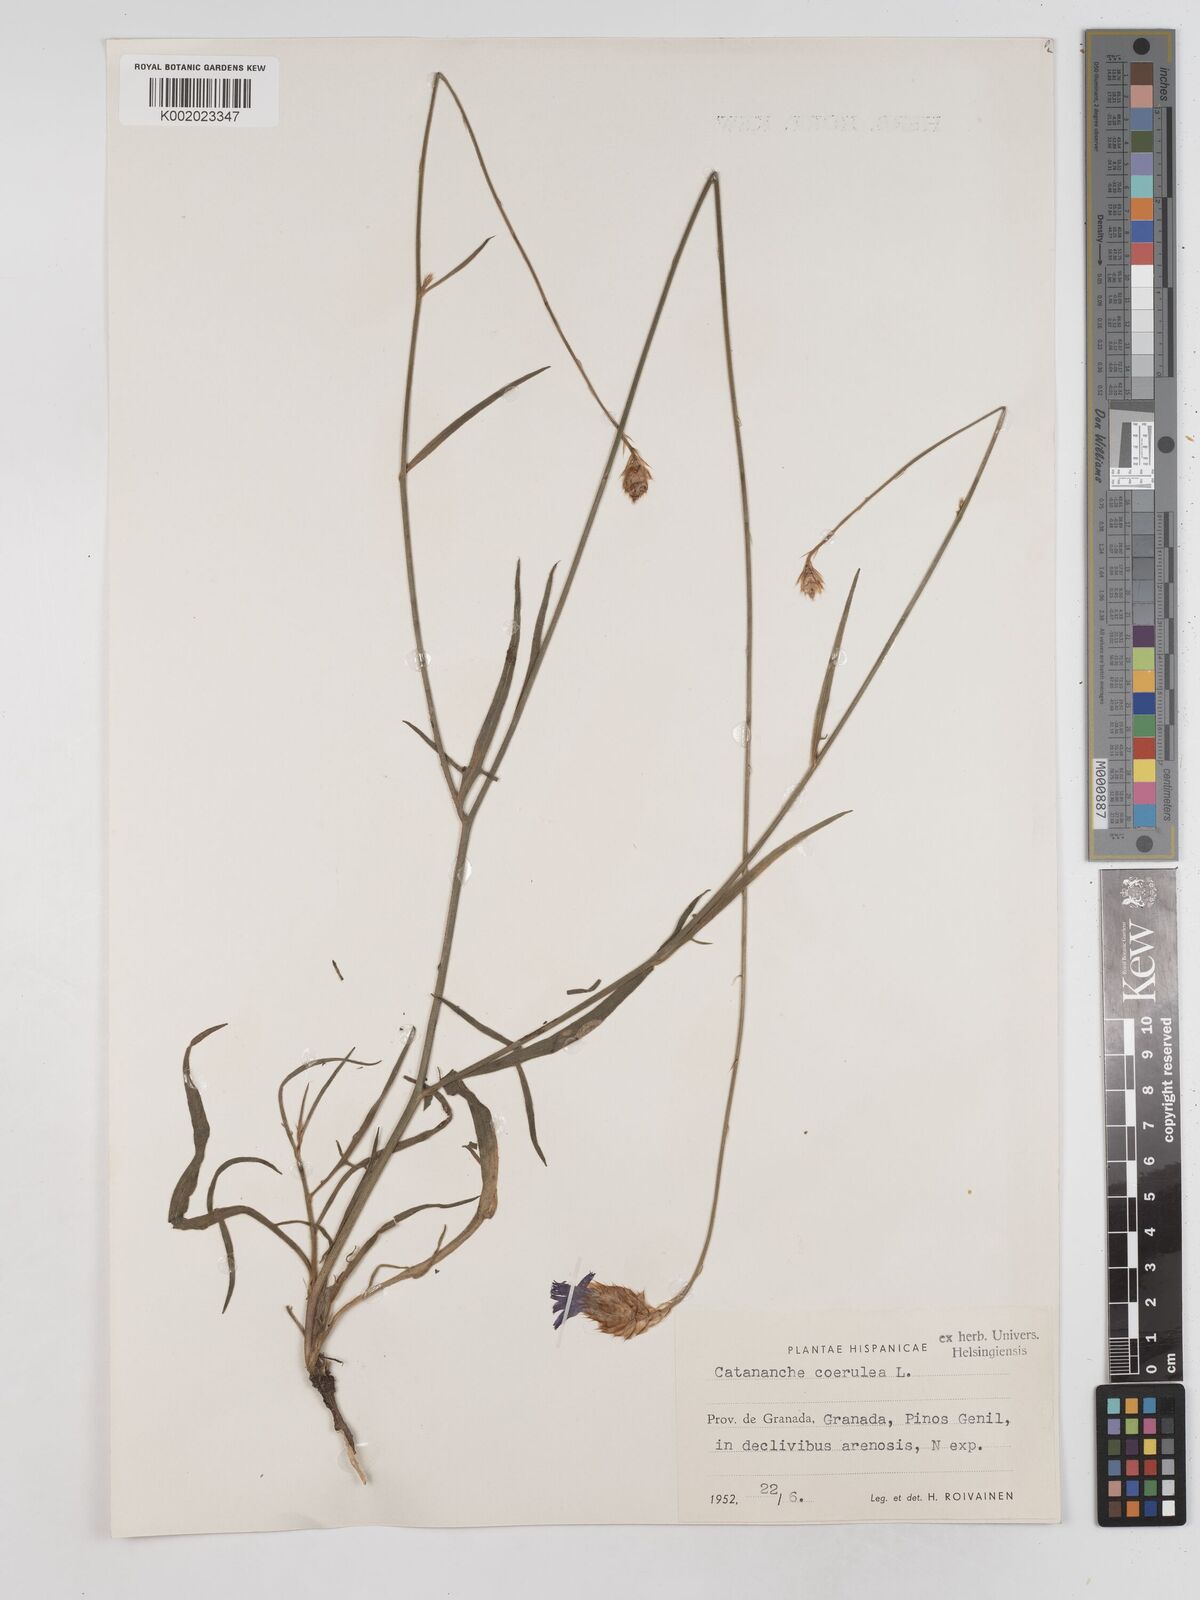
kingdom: Plantae
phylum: Tracheophyta
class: Magnoliopsida
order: Asterales
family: Asteraceae
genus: Catananche
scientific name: Catananche caerulea
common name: Blue cupidone
